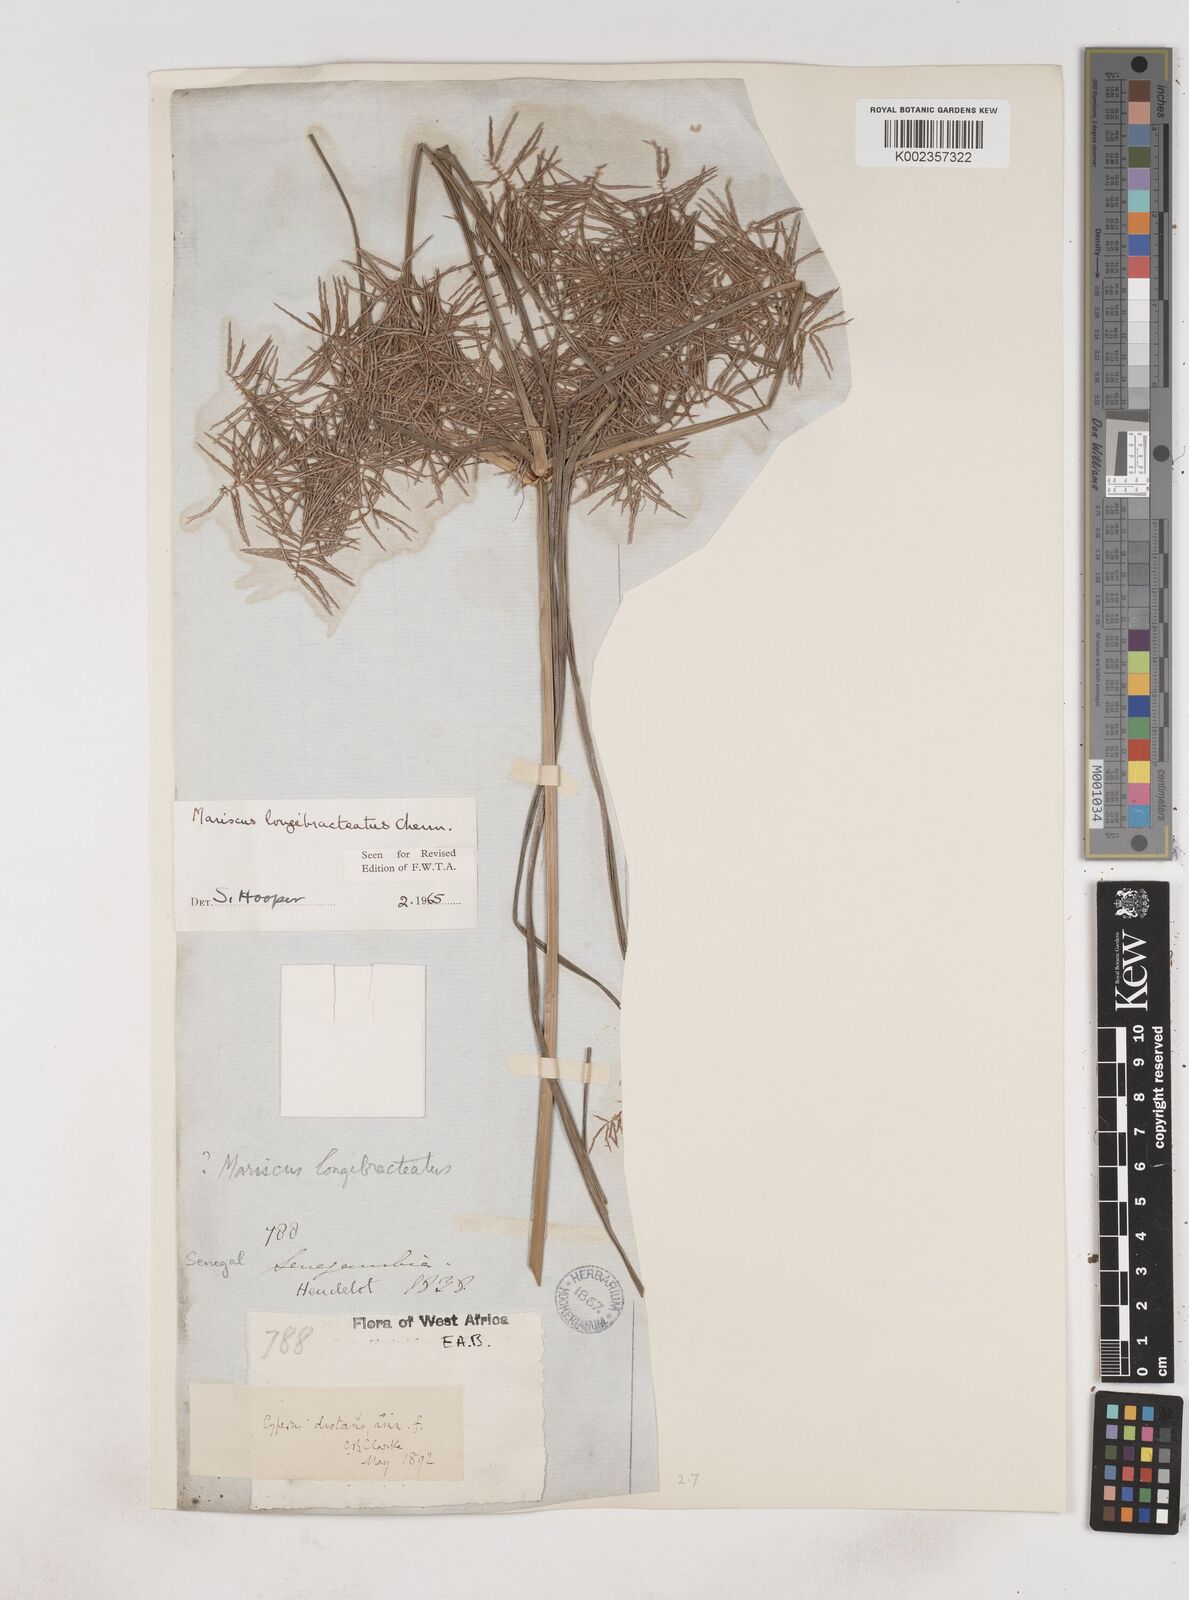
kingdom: Plantae
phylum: Tracheophyta
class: Liliopsida
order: Poales
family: Cyperaceae
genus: Cyperus
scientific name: Cyperus distans
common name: Slender cyperus
